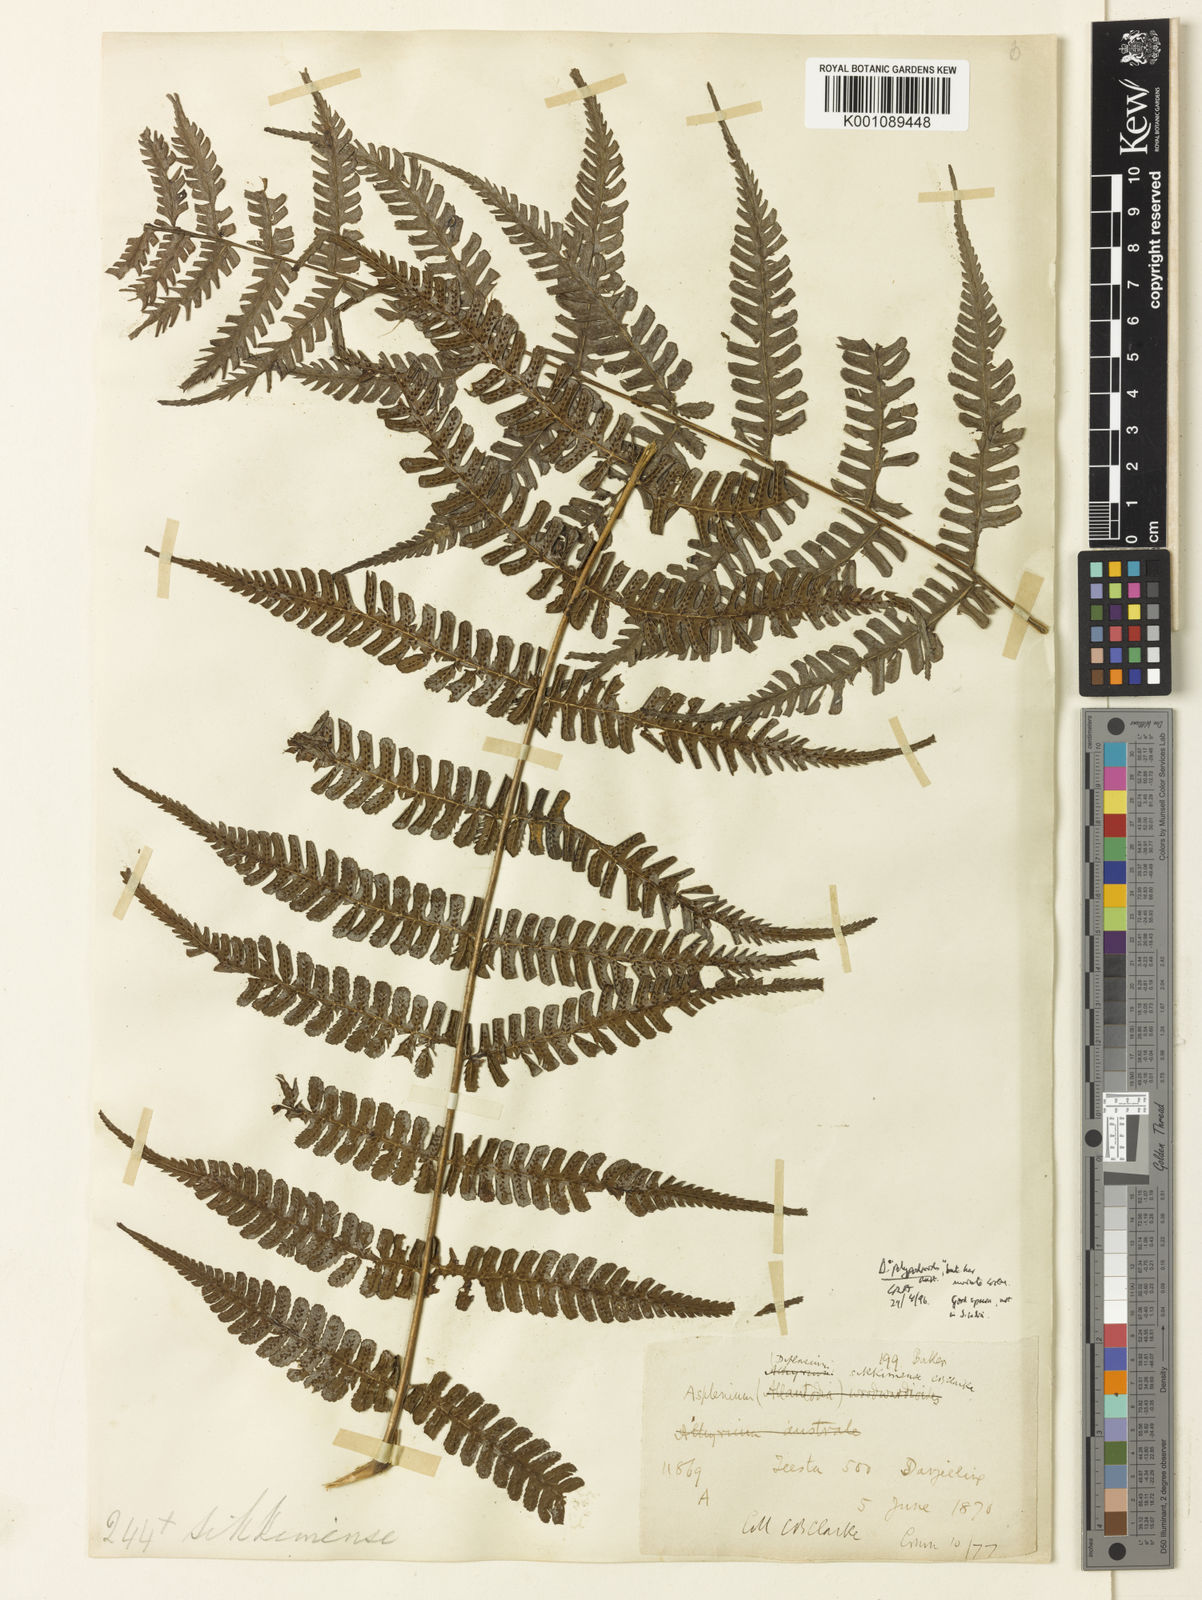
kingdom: Plantae
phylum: Tracheophyta
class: Polypodiopsida
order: Polypodiales
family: Athyriaceae
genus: Diplazium
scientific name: Diplazium sikkimense
